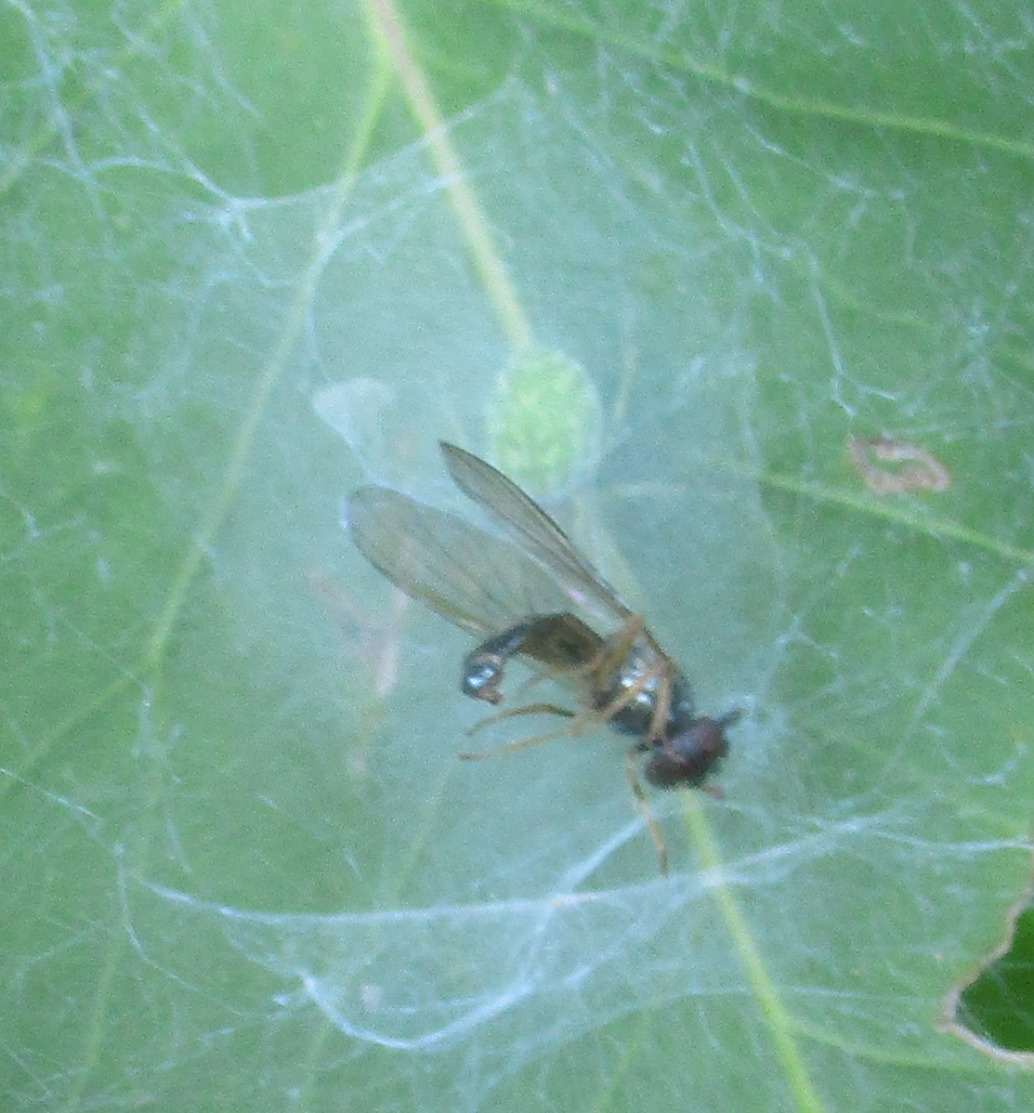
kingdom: Animalia
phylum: Arthropoda
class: Arachnida
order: Araneae
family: Dictynidae
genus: Nigma
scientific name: Nigma walckenaeri
